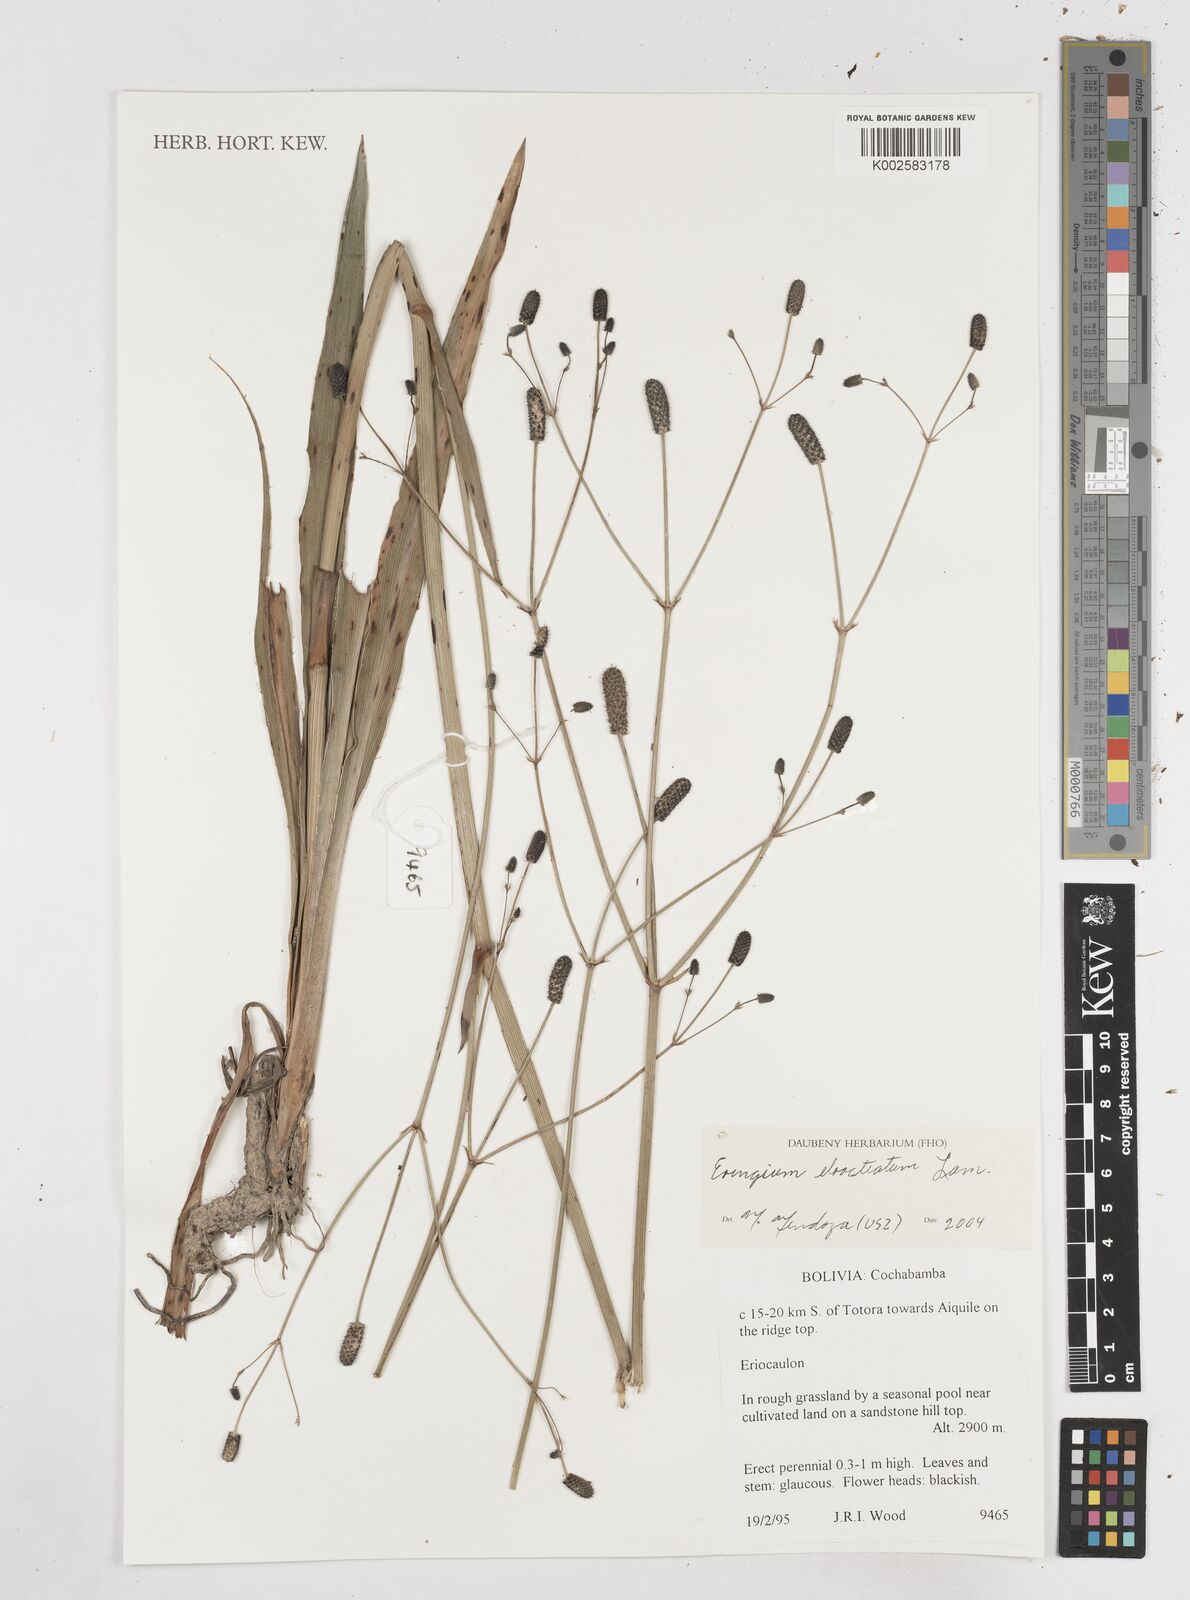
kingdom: Plantae
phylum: Tracheophyta
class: Magnoliopsida
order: Apiales
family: Apiaceae
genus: Eryngium
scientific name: Eryngium ebracteatum
